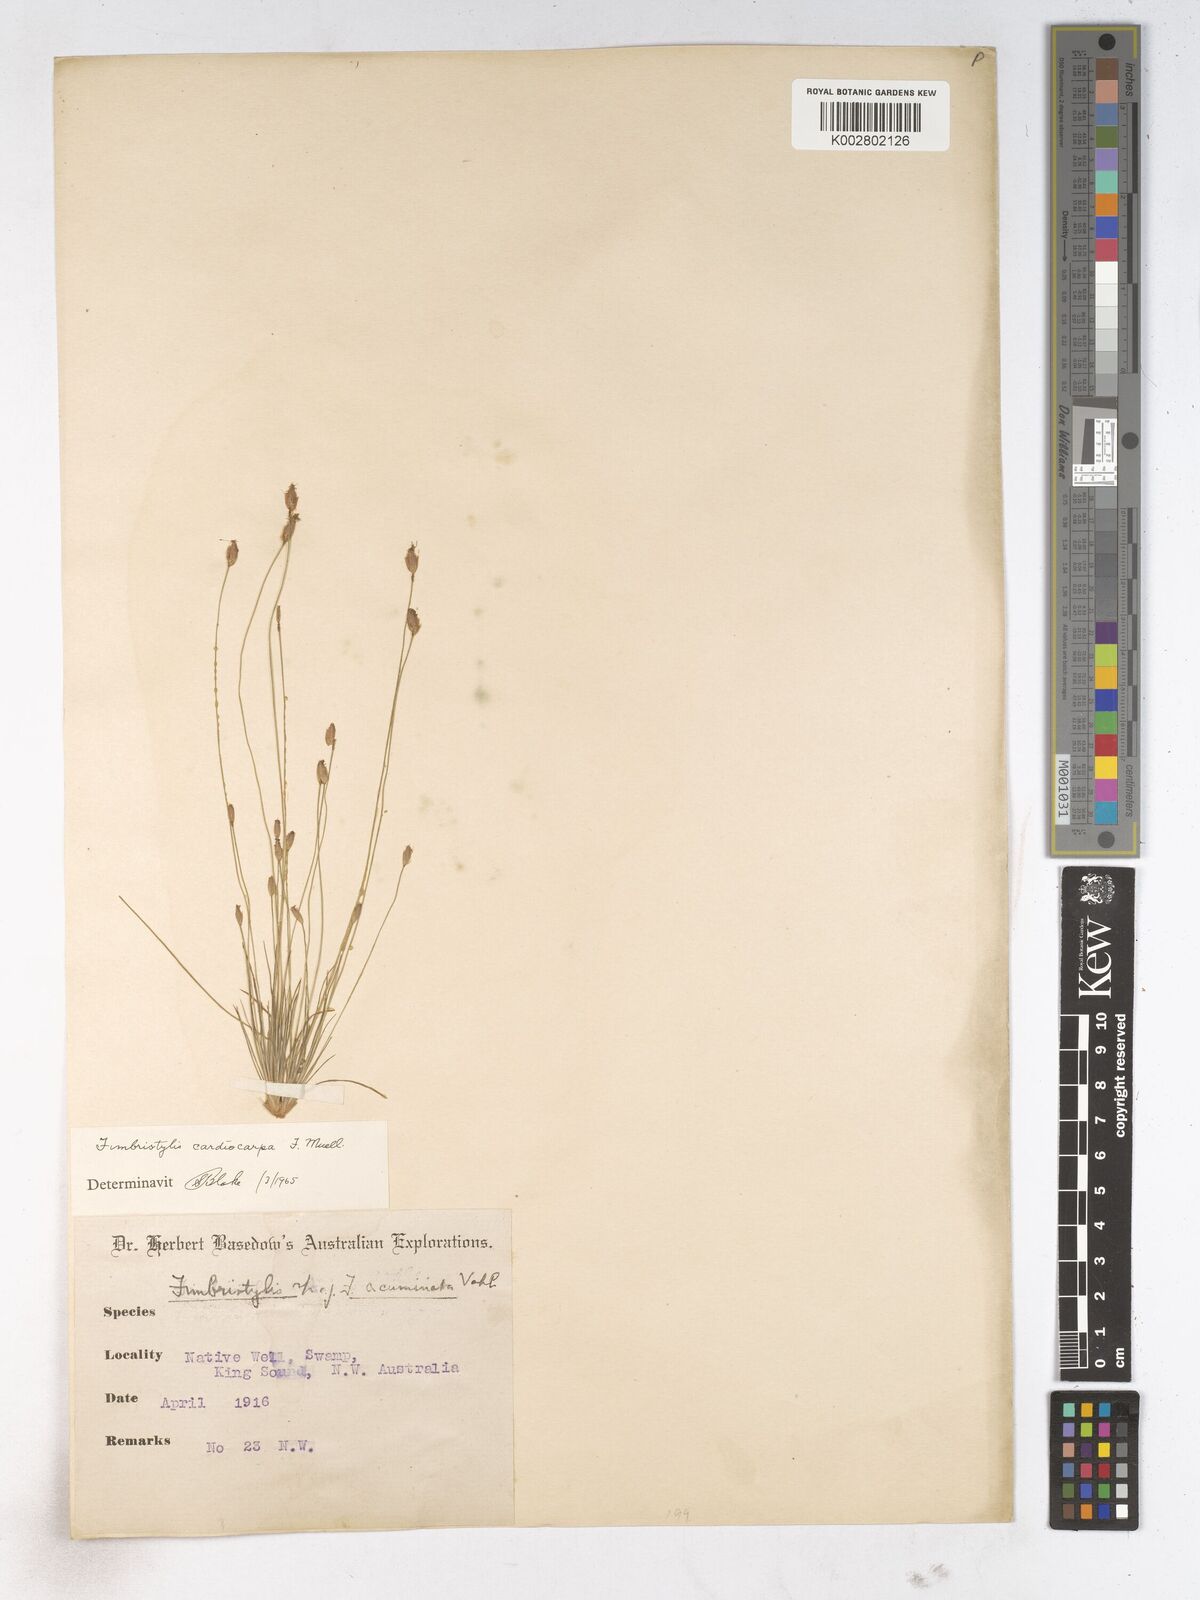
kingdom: Plantae
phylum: Tracheophyta
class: Liliopsida
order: Poales
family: Cyperaceae
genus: Fimbristylis
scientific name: Fimbristylis cardiocarpa
